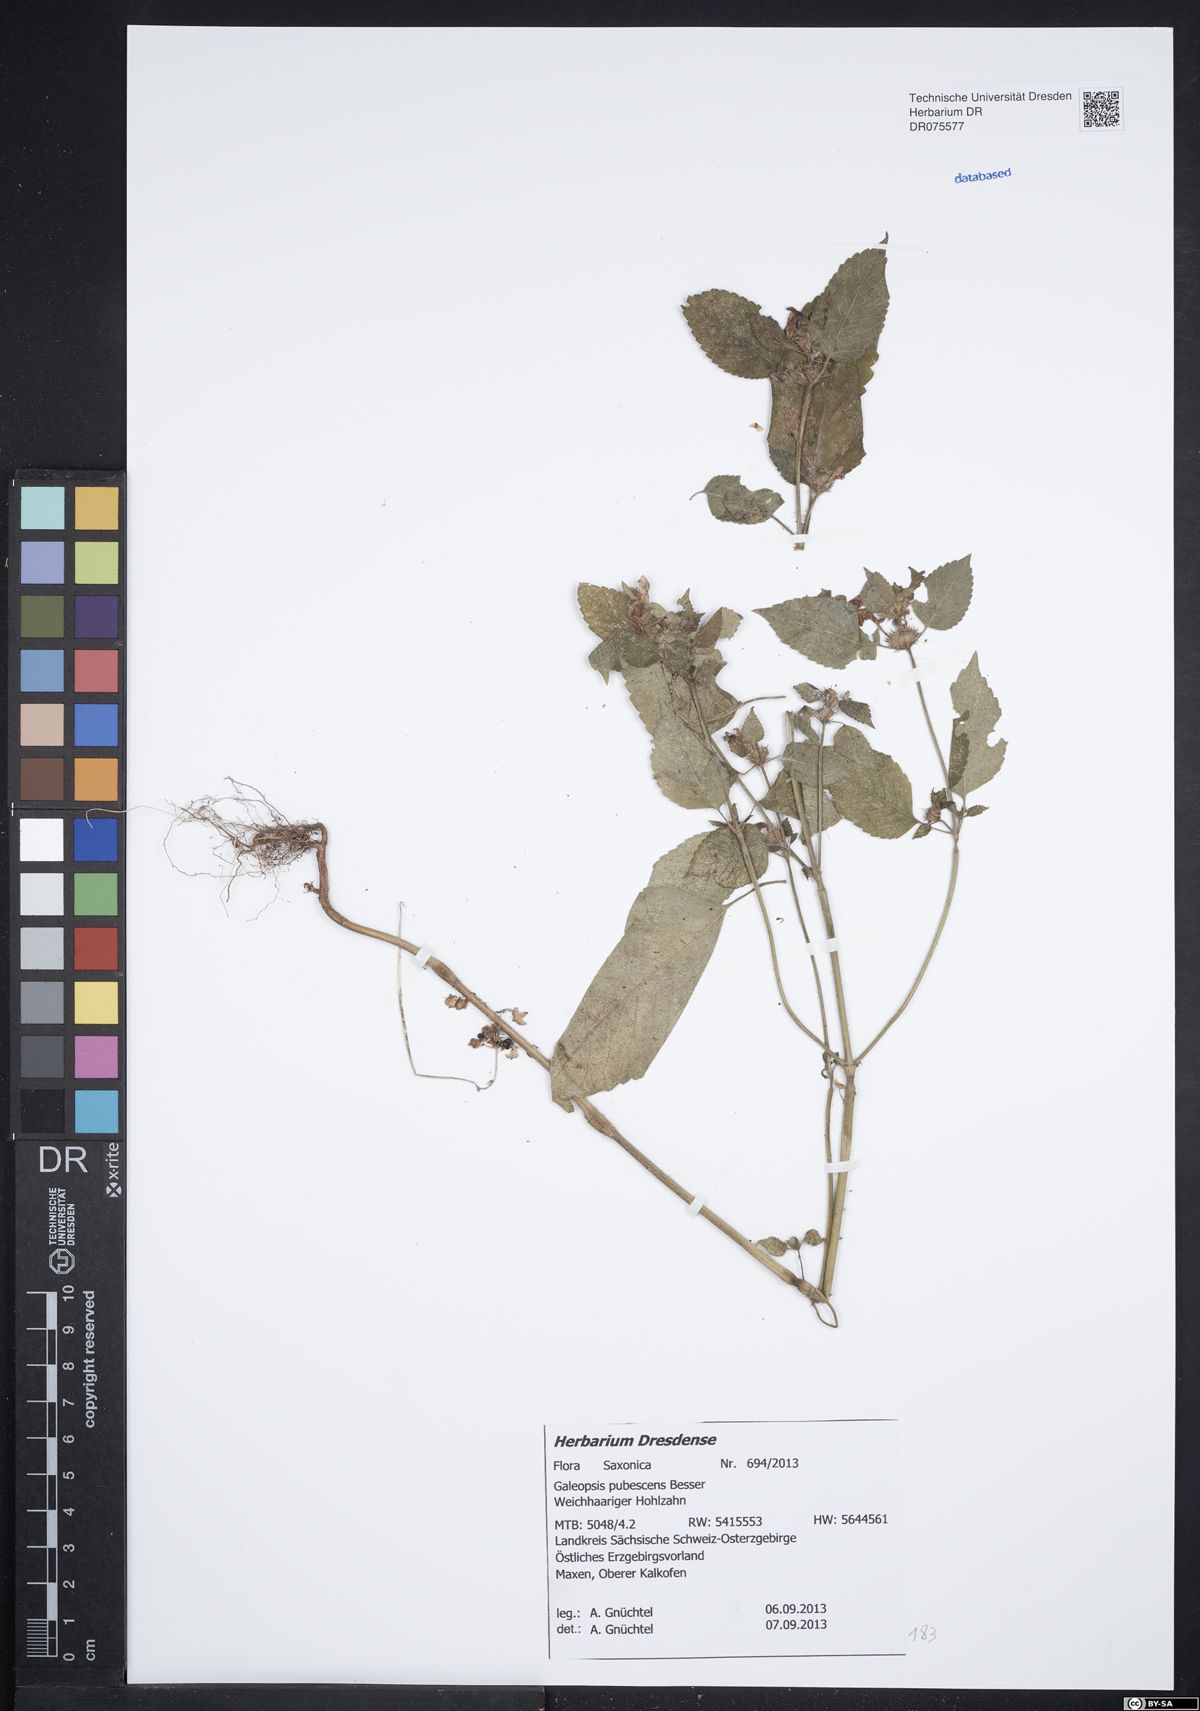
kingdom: Plantae
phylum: Tracheophyta
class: Magnoliopsida
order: Lamiales
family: Lamiaceae
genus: Galeopsis
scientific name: Galeopsis pubescens
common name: Downy hemp-nettle
